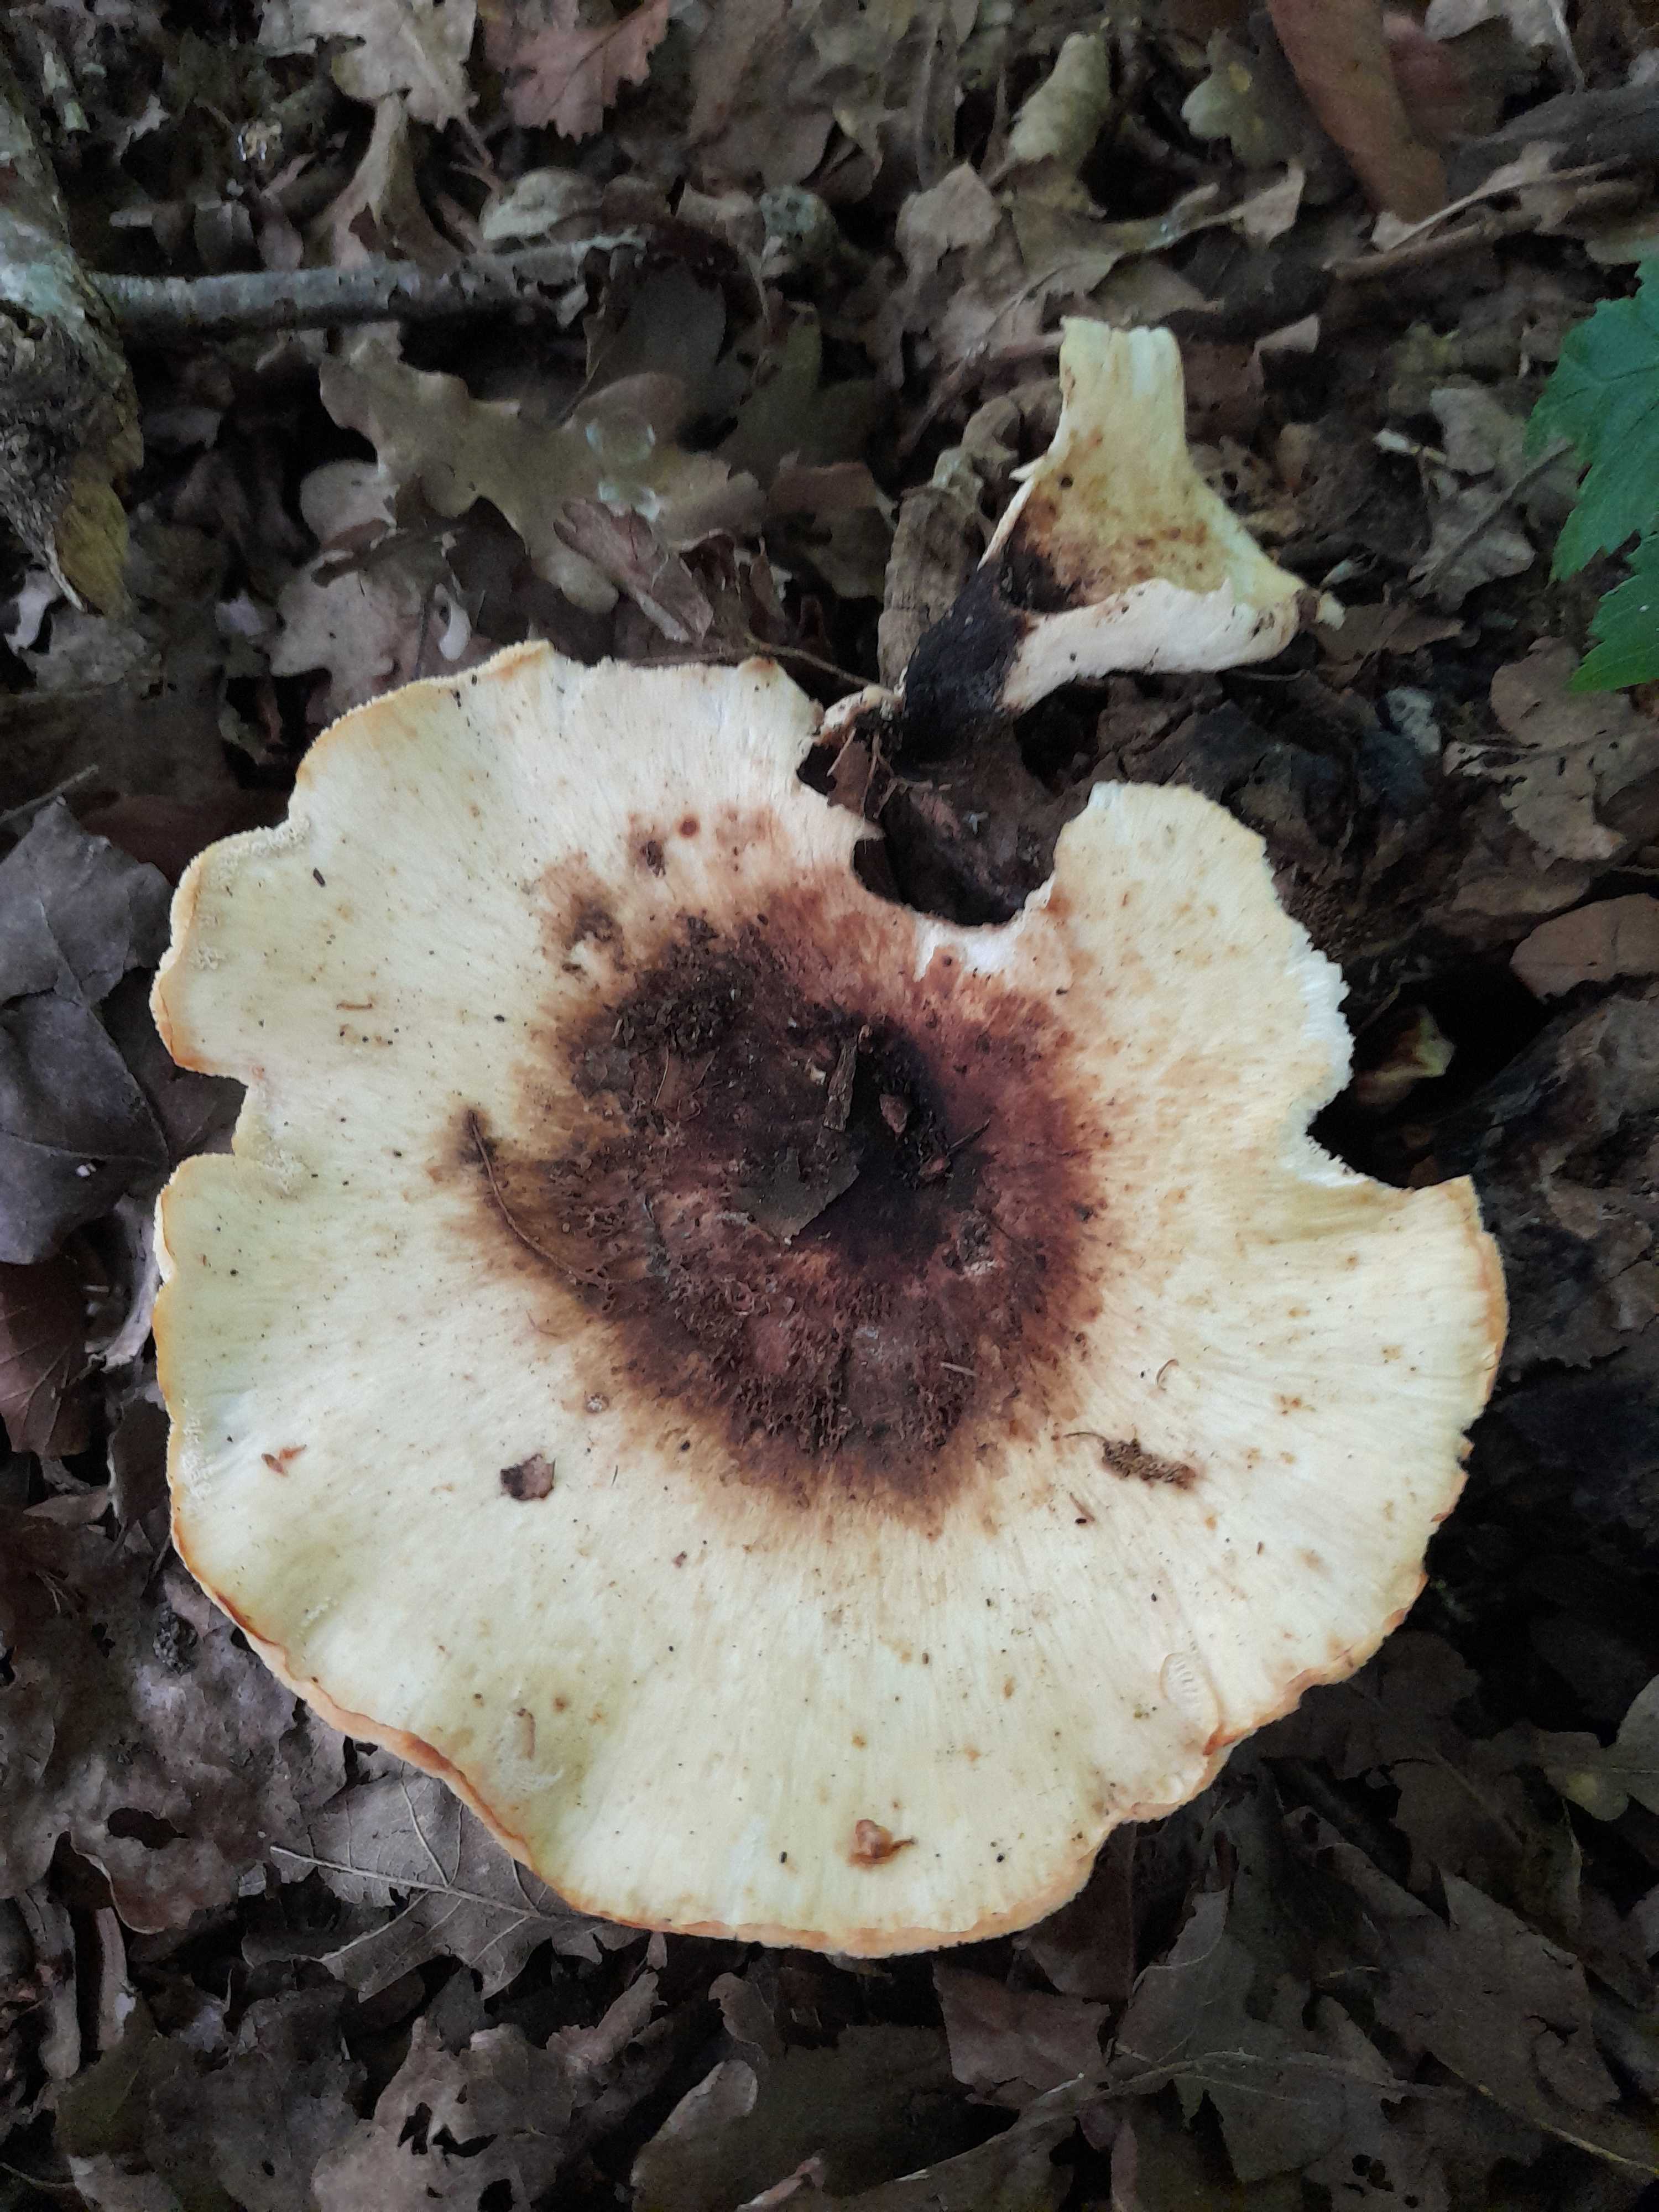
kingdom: Fungi
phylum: Basidiomycota
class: Agaricomycetes
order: Polyporales
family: Polyporaceae
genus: Cerioporus
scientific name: Cerioporus varius
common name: foranderlig stilkporesvamp
